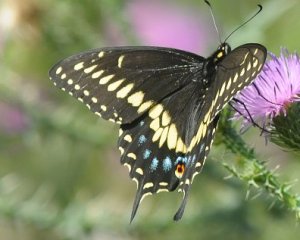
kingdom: Animalia
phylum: Arthropoda
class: Insecta
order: Lepidoptera
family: Papilionidae
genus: Papilio
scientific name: Papilio polyxenes
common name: Black Swallowtail
